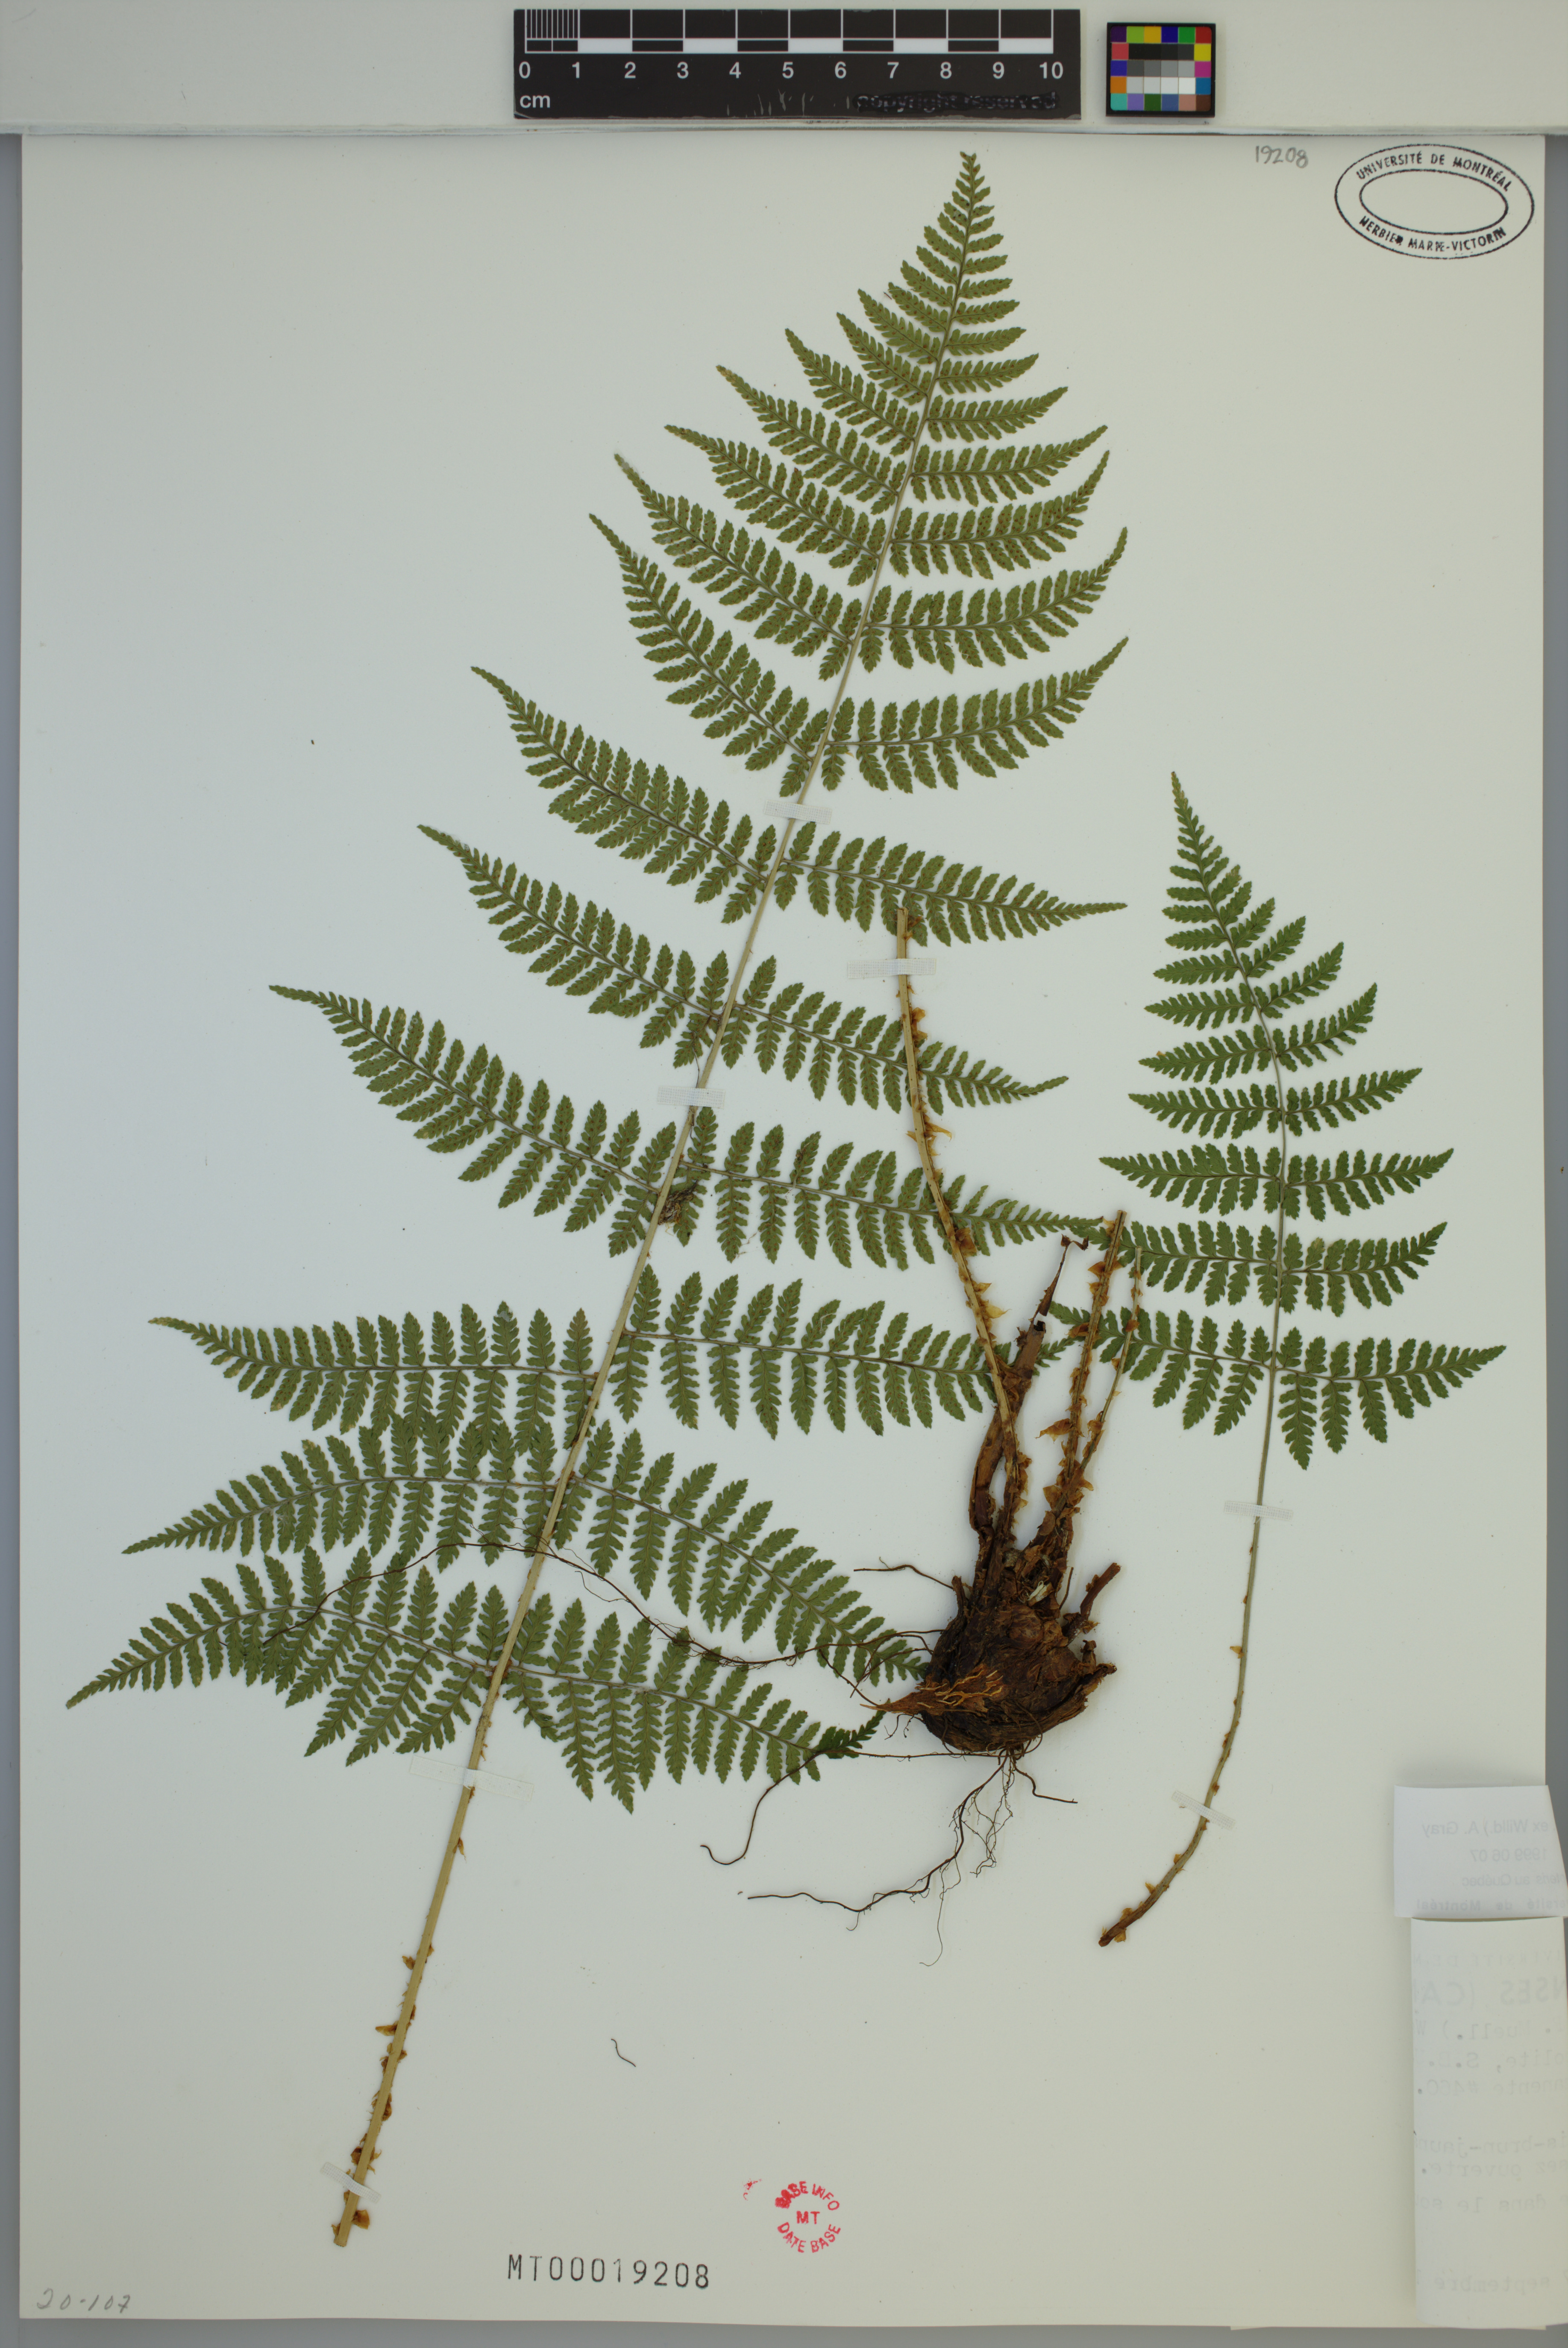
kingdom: Plantae
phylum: Tracheophyta
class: Polypodiopsida
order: Polypodiales
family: Dryopteridaceae
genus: Dryopteris
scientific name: Dryopteris intermedia
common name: Evergreen wood fern
